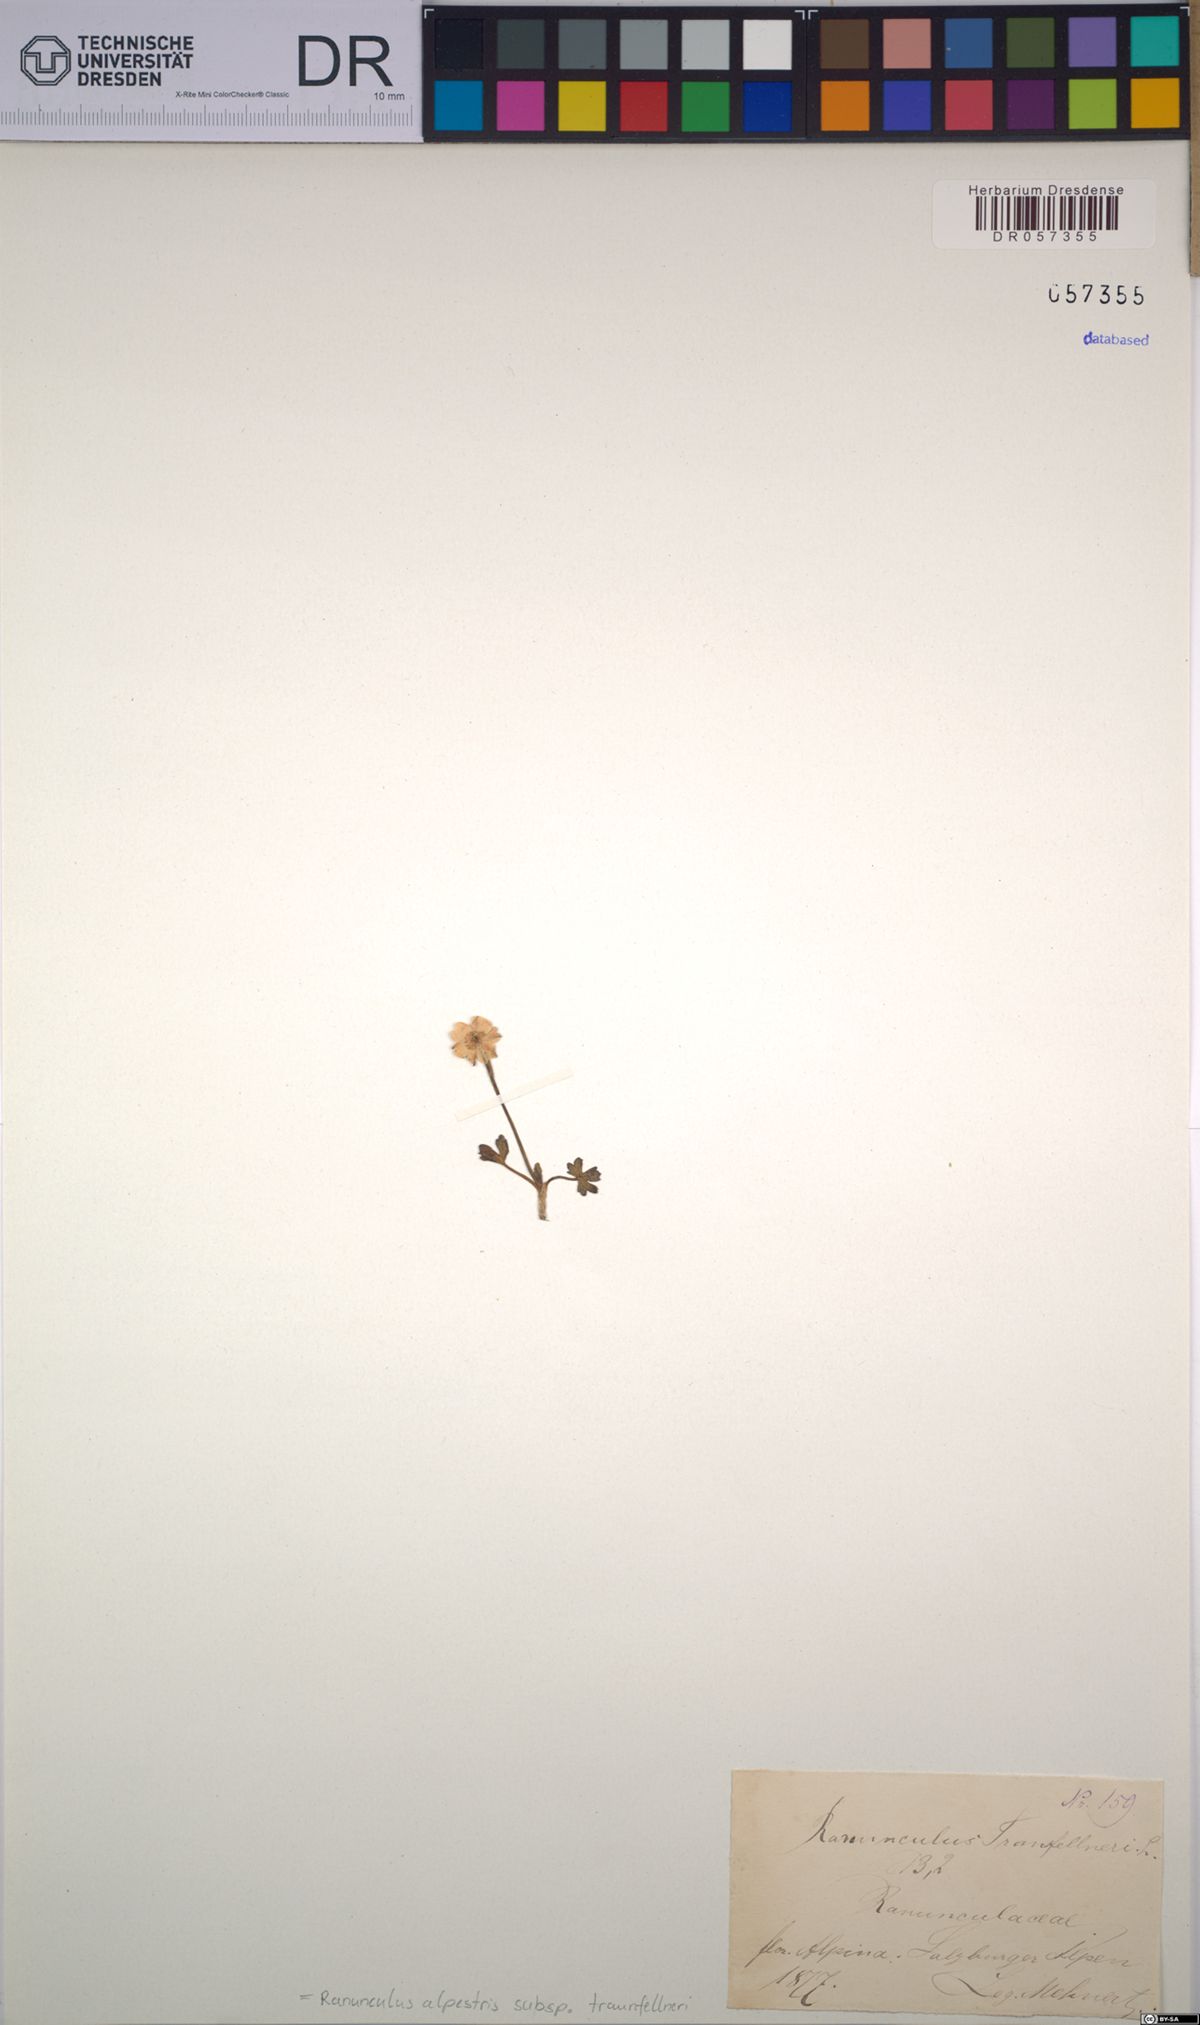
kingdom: Plantae
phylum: Tracheophyta
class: Magnoliopsida
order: Ranunculales
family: Ranunculaceae
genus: Ranunculus
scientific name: Ranunculus traunfellneri
